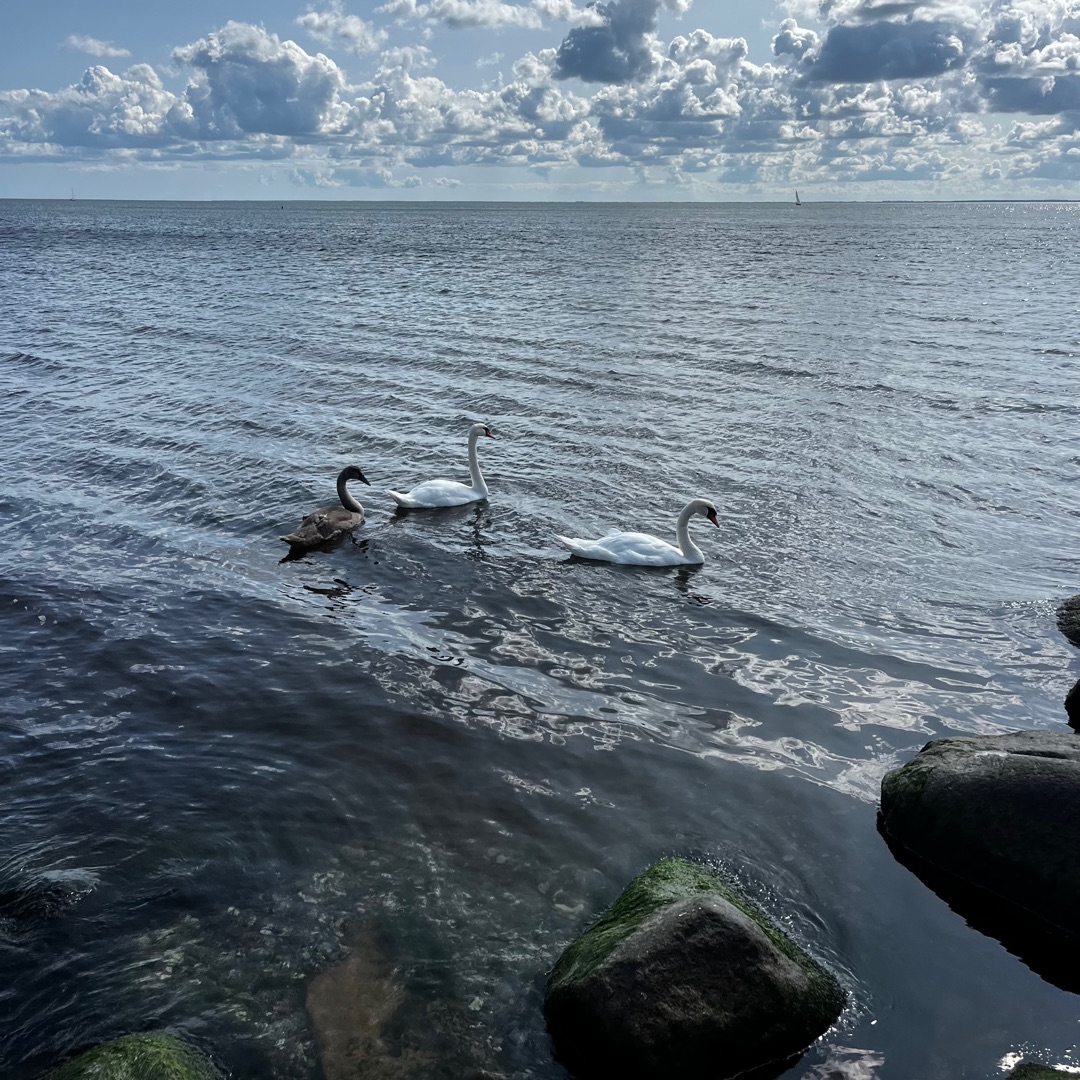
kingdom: Animalia
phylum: Chordata
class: Aves
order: Anseriformes
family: Anatidae
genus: Cygnus
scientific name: Cygnus olor
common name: Knopsvane
